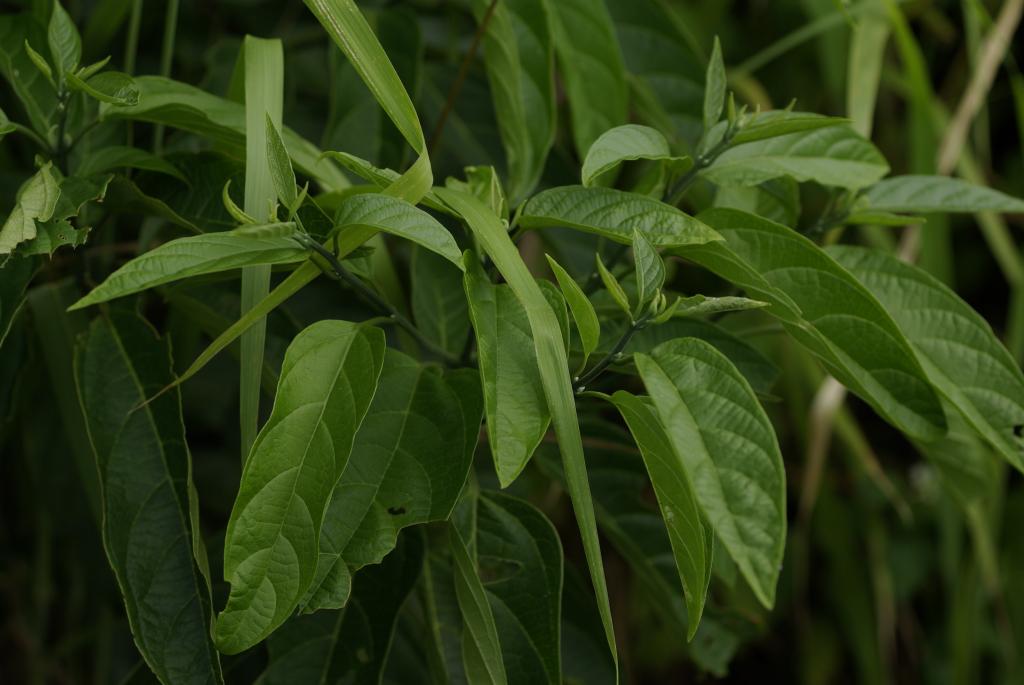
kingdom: Plantae
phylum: Tracheophyta
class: Magnoliopsida
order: Lamiales
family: Lamiaceae
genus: Clerodendrum
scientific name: Clerodendrum cyrtophyllum
